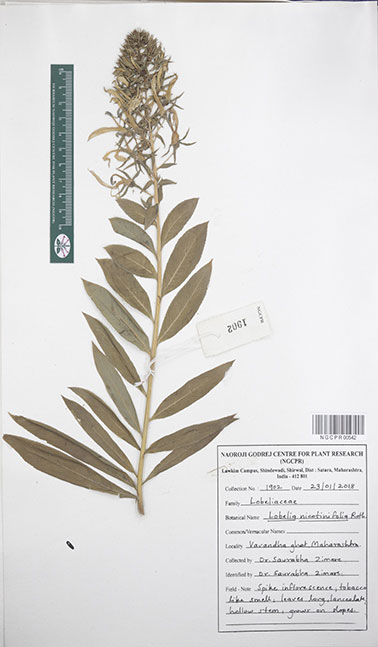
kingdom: Plantae
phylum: Tracheophyta
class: Magnoliopsida
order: Asterales
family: Campanulaceae
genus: Lobelia
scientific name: Lobelia nicotianifolia
